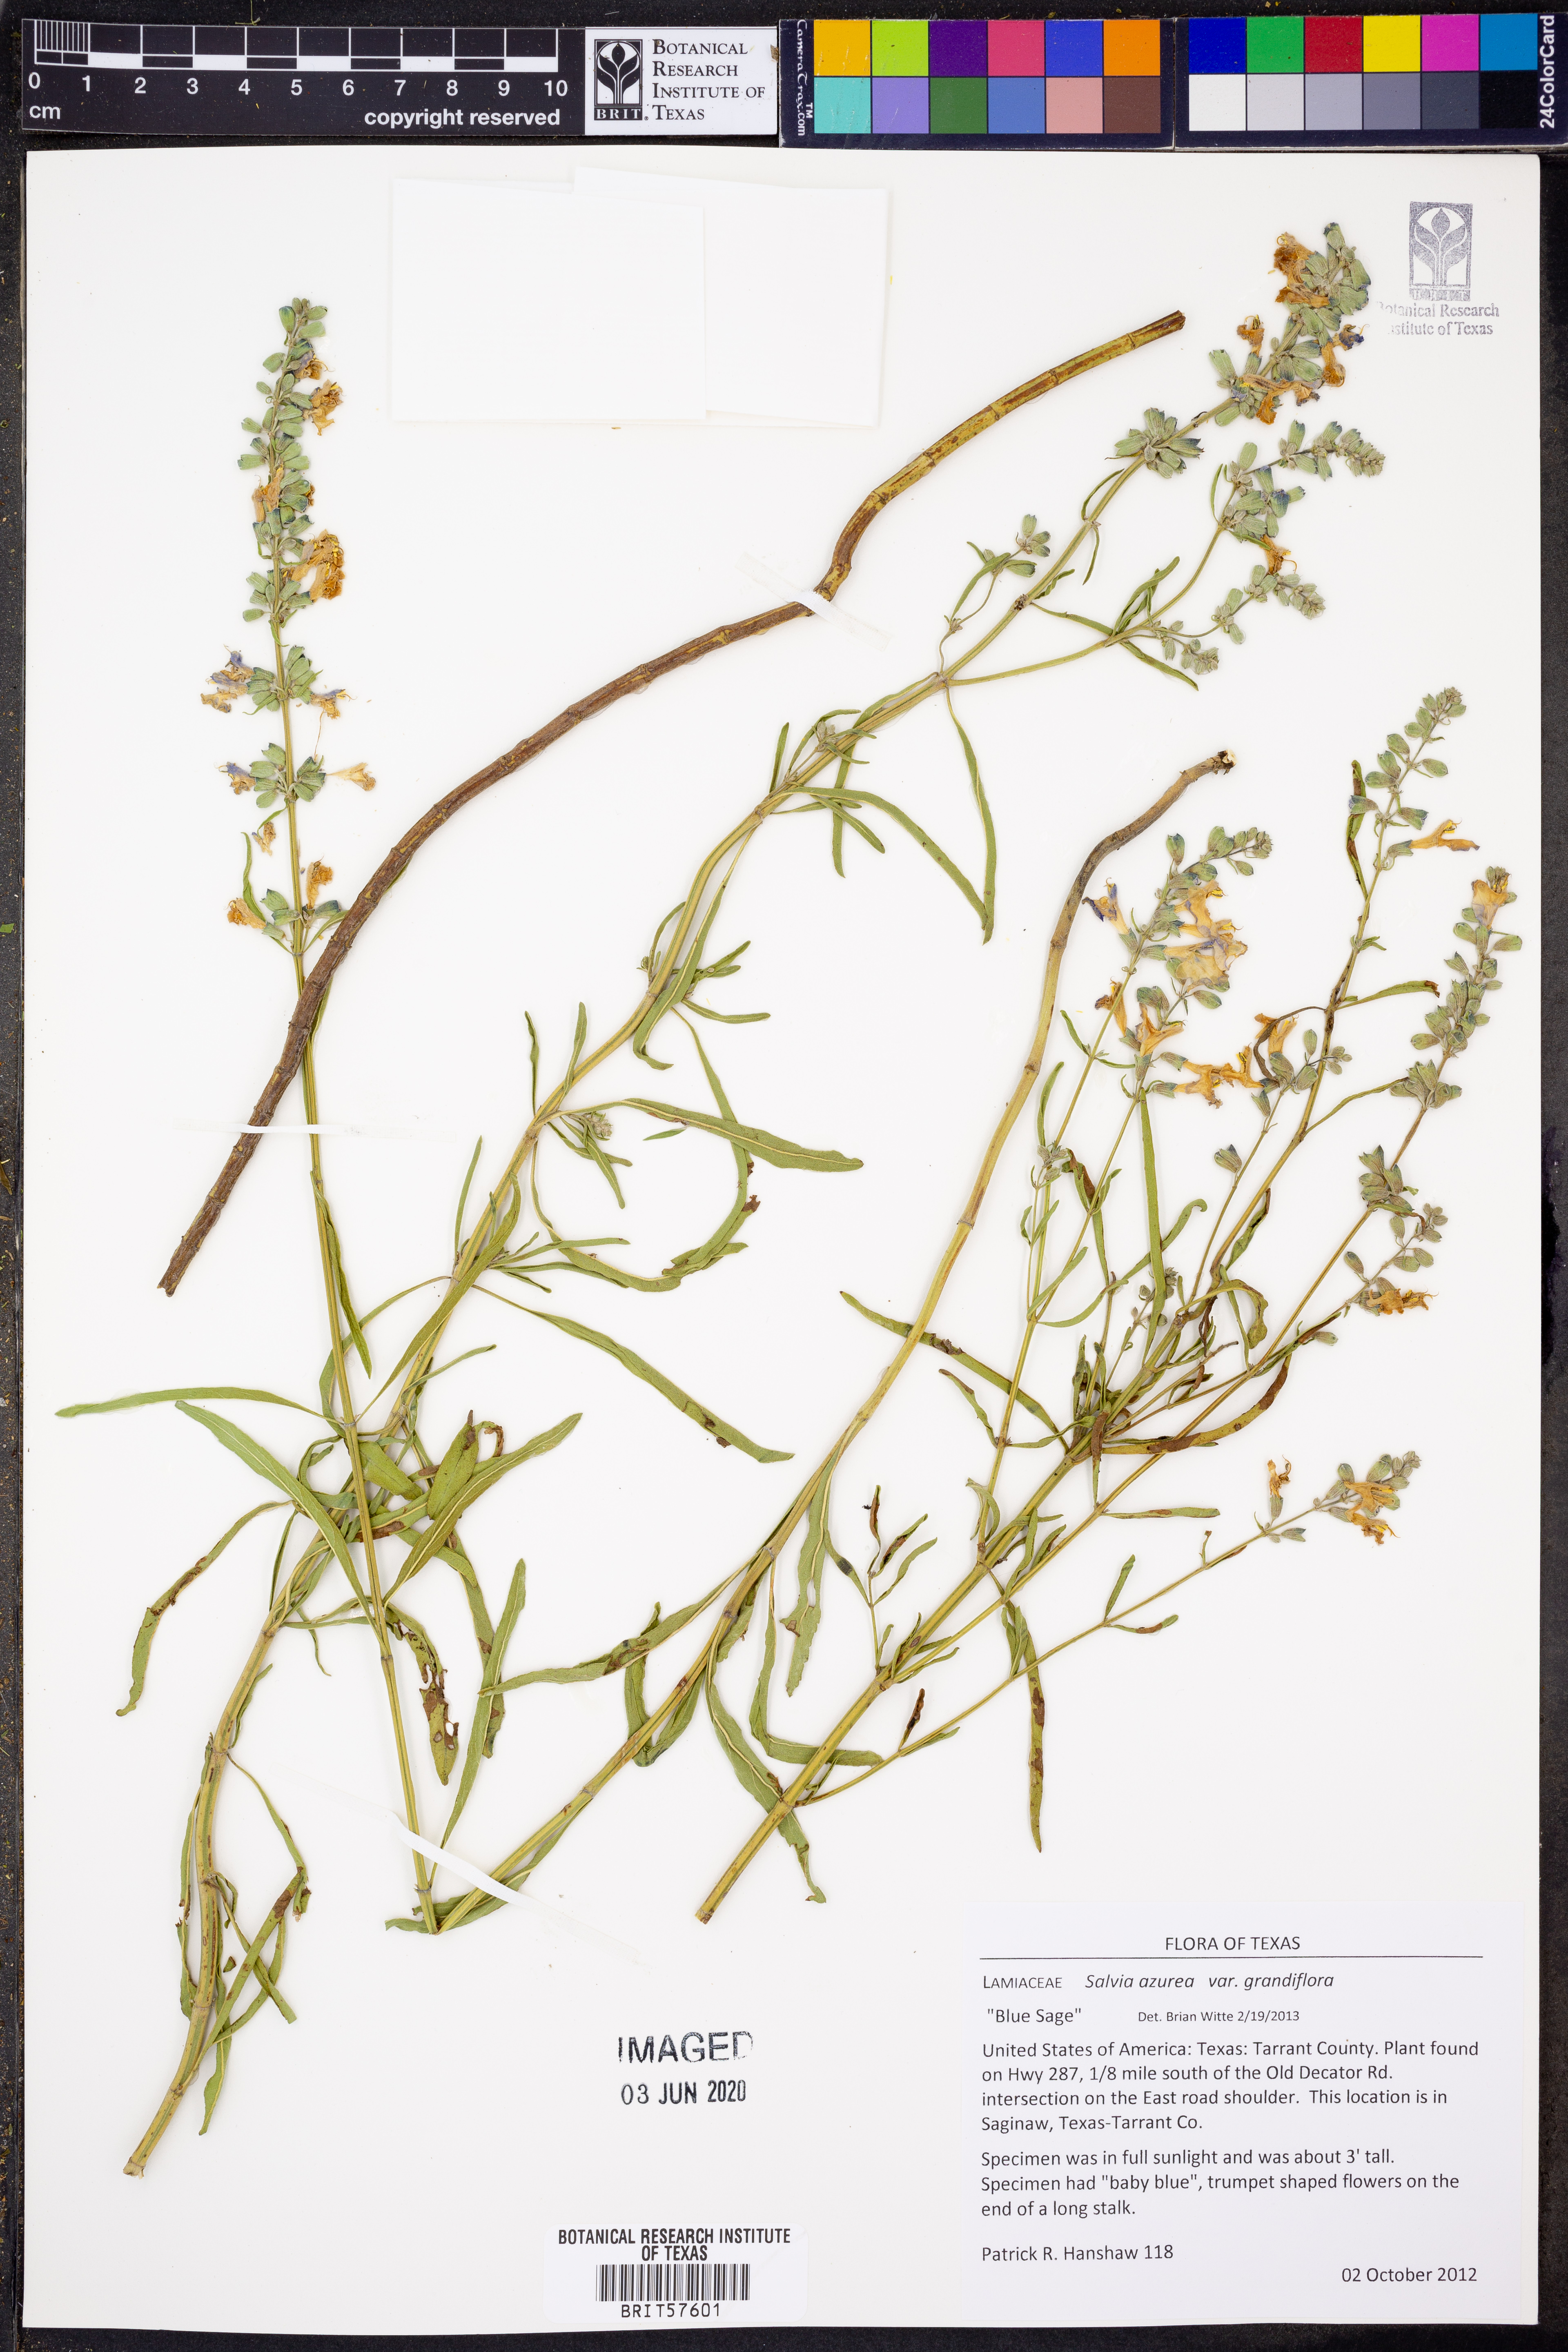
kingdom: Plantae
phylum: Tracheophyta
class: Magnoliopsida
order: Lamiales
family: Lamiaceae
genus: Salvia
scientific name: Salvia azurea
